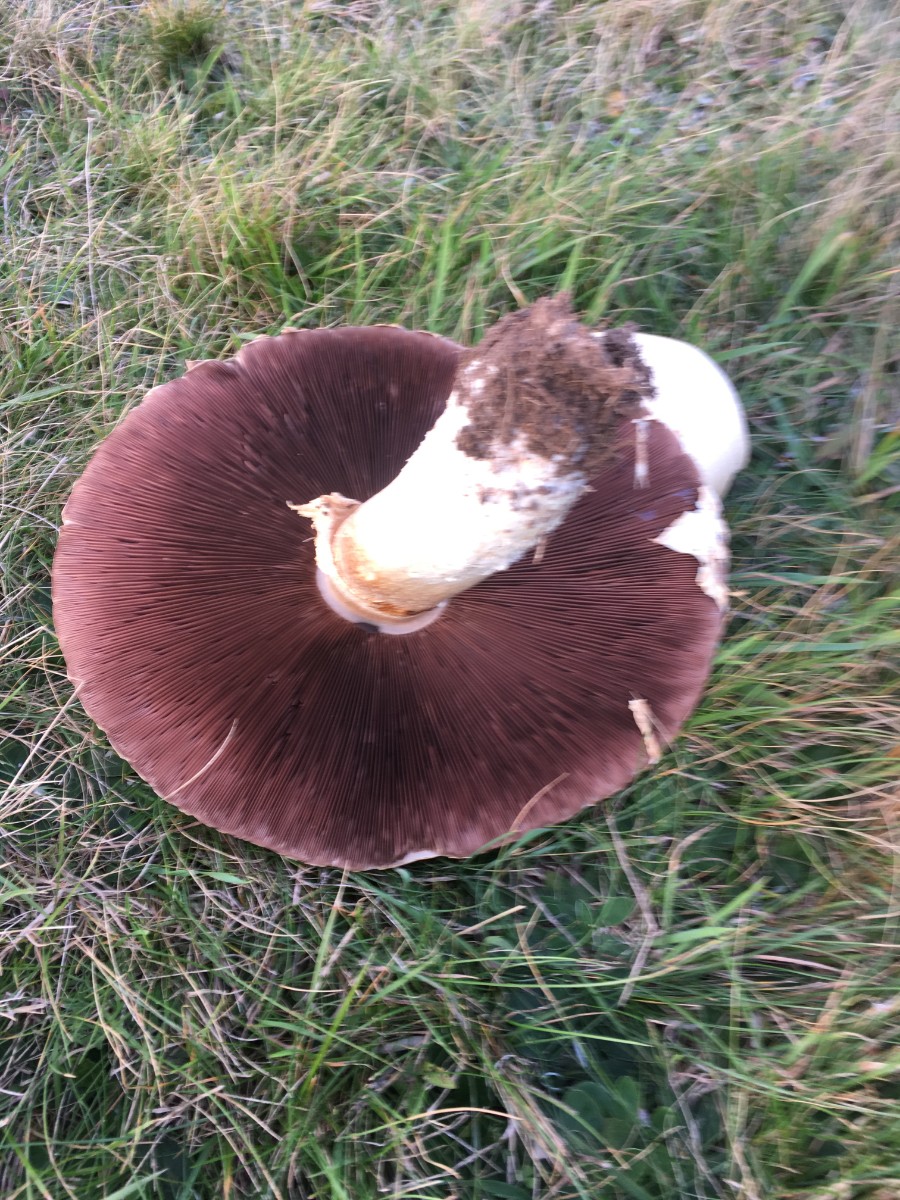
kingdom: Fungi
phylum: Basidiomycota
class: Agaricomycetes
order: Agaricales
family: Agaricaceae
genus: Agaricus
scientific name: Agaricus
